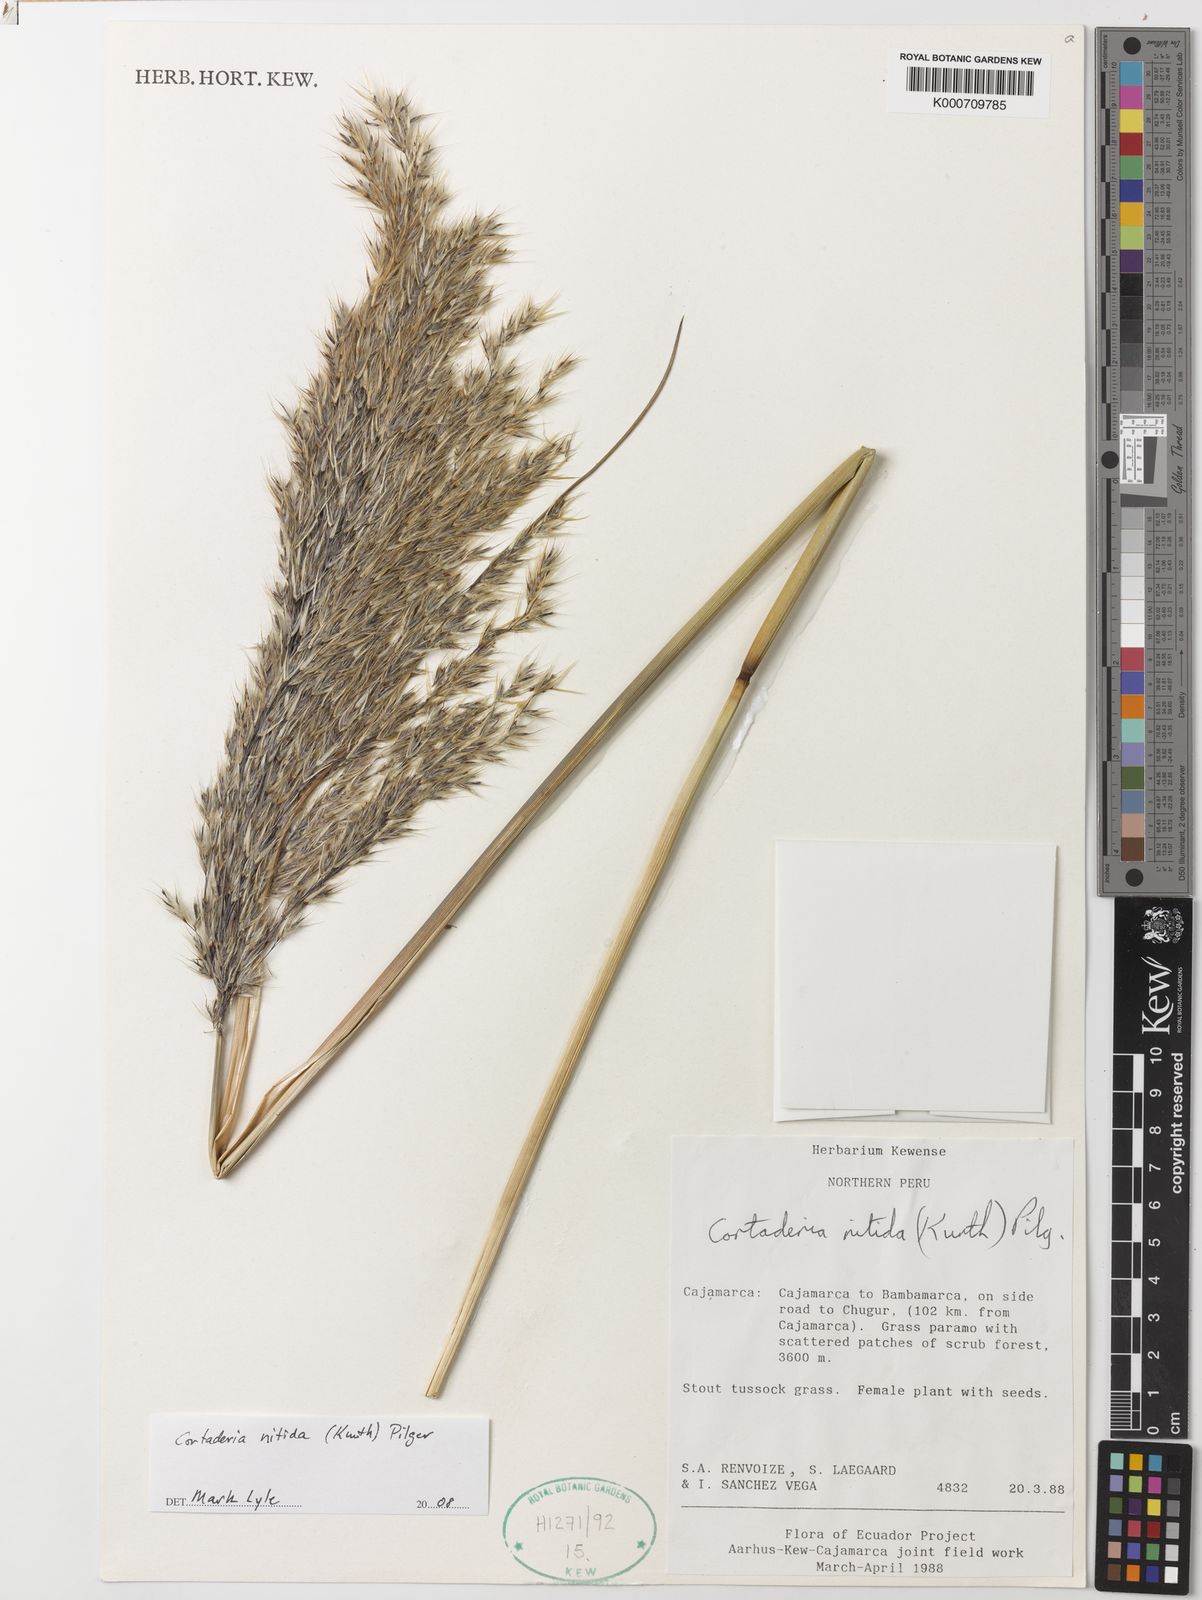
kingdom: Plantae
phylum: Tracheophyta
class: Liliopsida
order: Poales
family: Poaceae
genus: Cortaderia
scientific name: Cortaderia nitida
